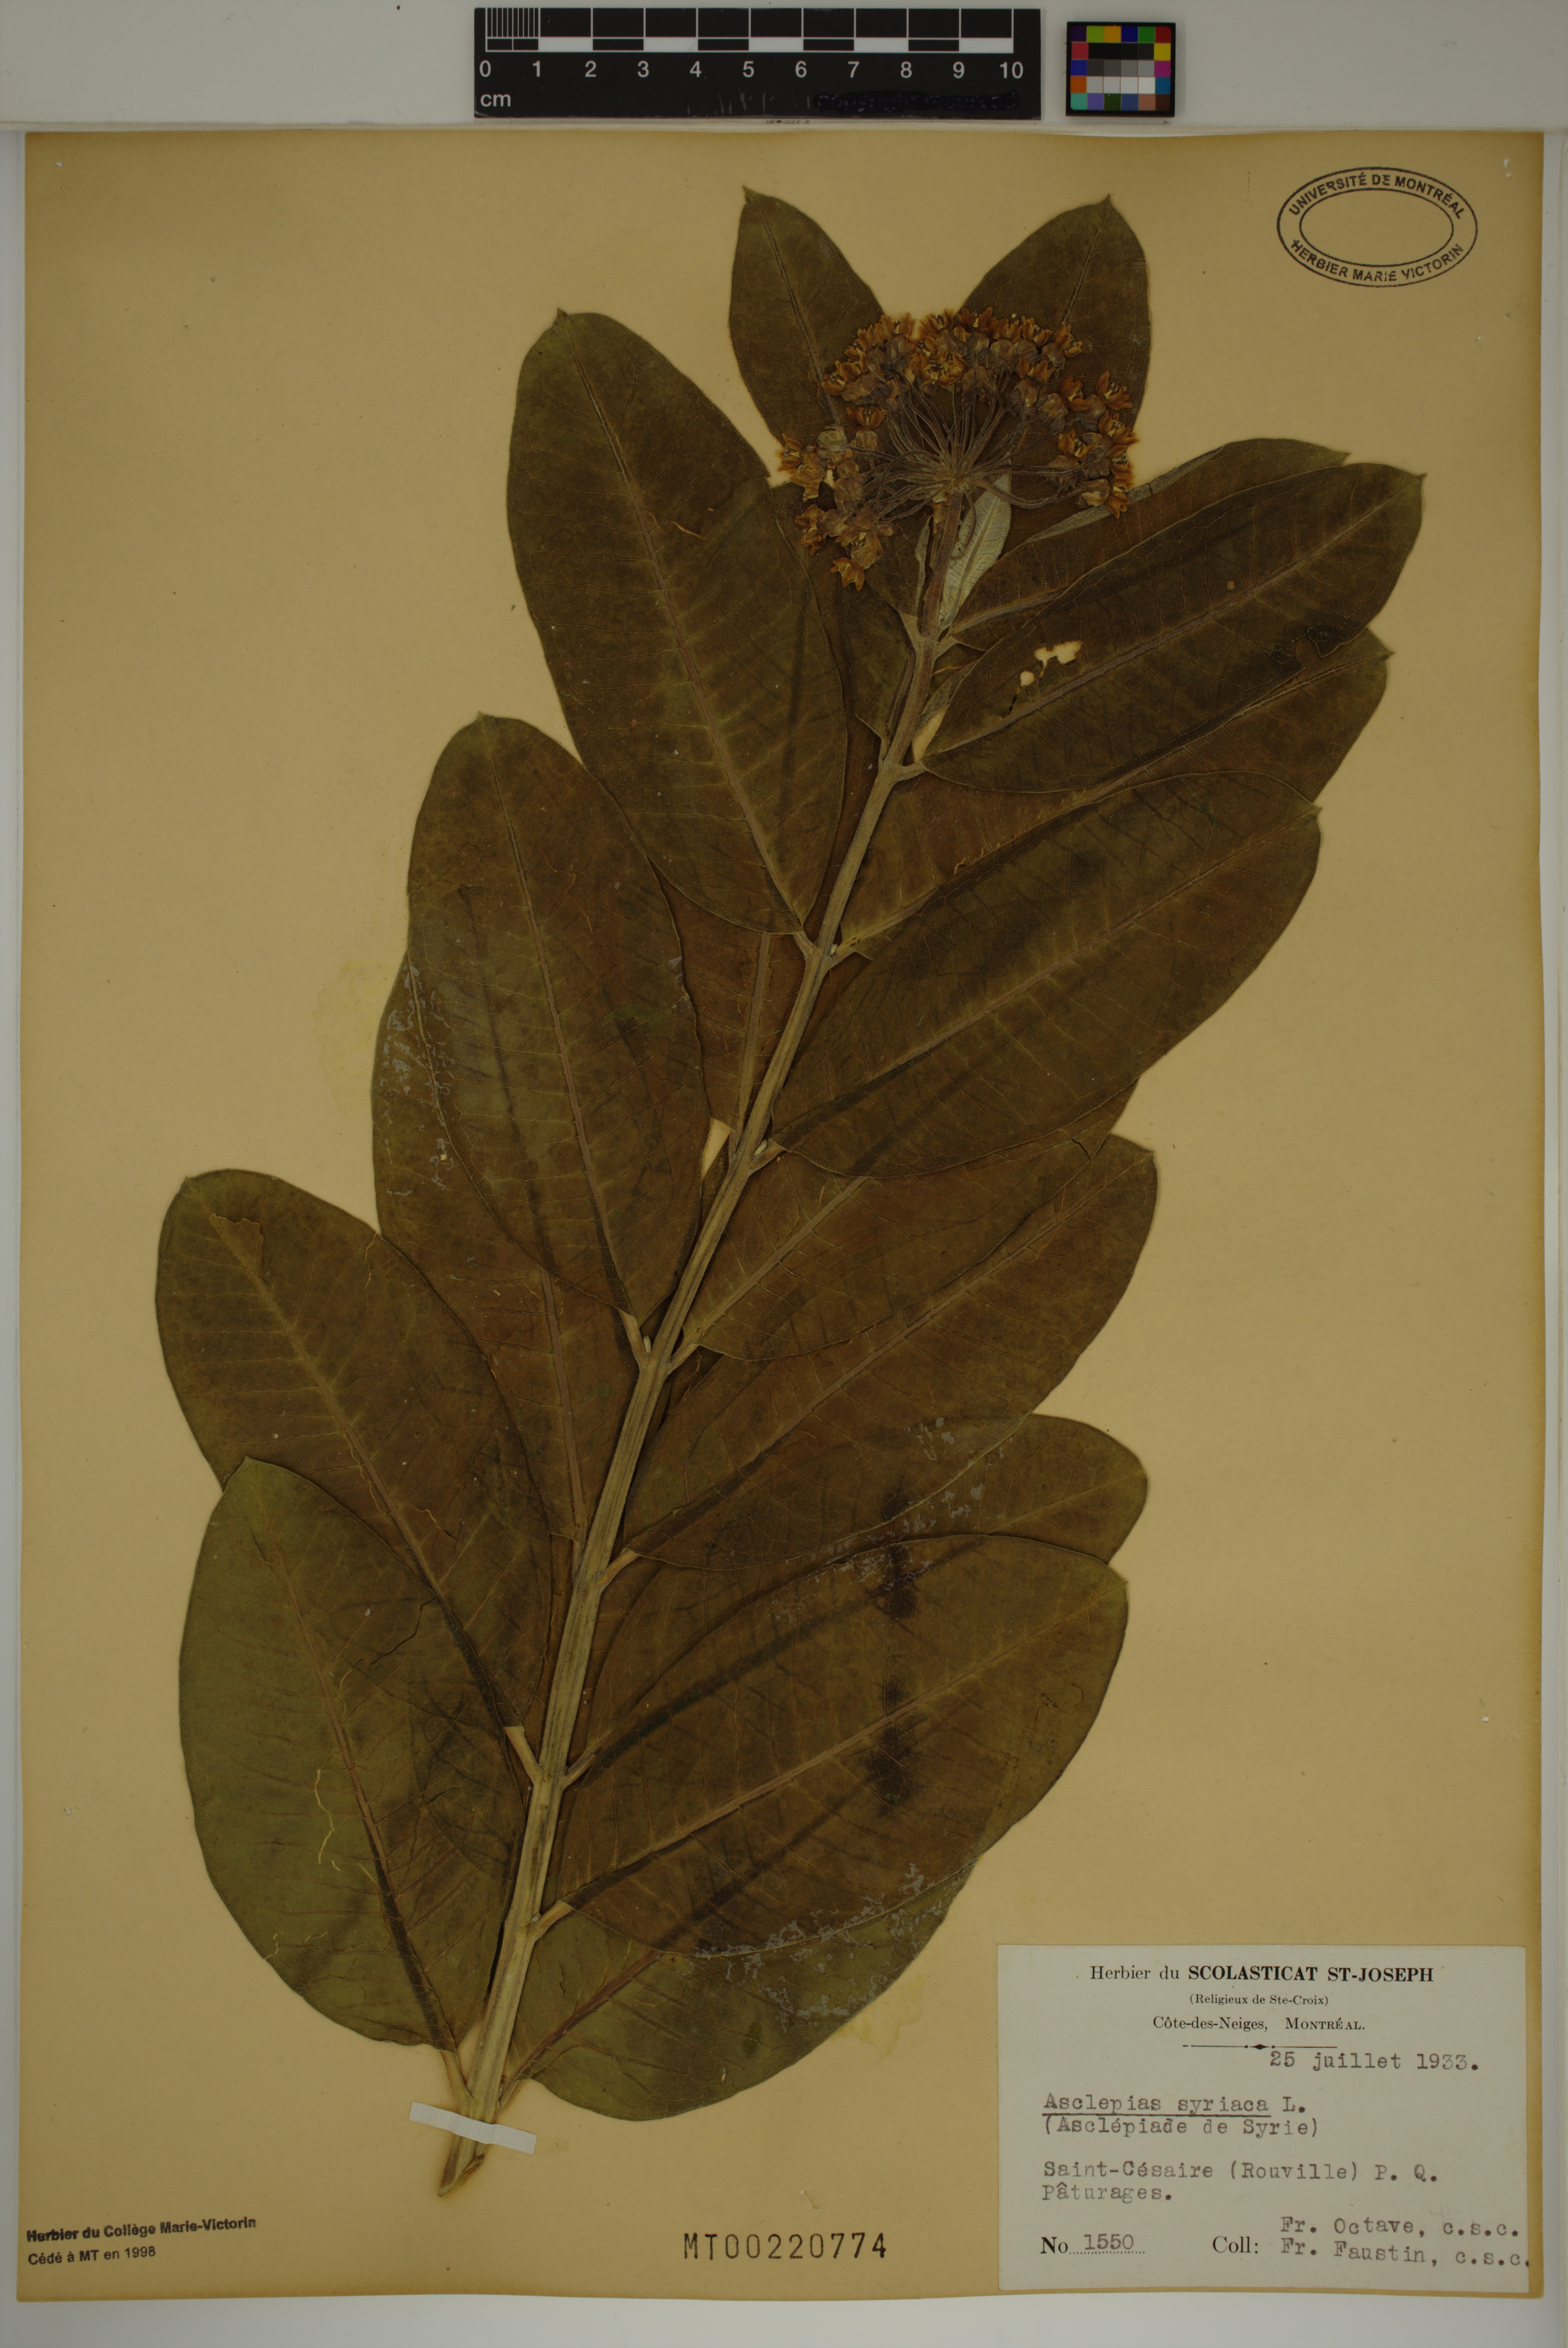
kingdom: Plantae
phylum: Tracheophyta
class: Magnoliopsida
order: Gentianales
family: Apocynaceae
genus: Asclepias
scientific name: Asclepias syriaca
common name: Common milkweed
